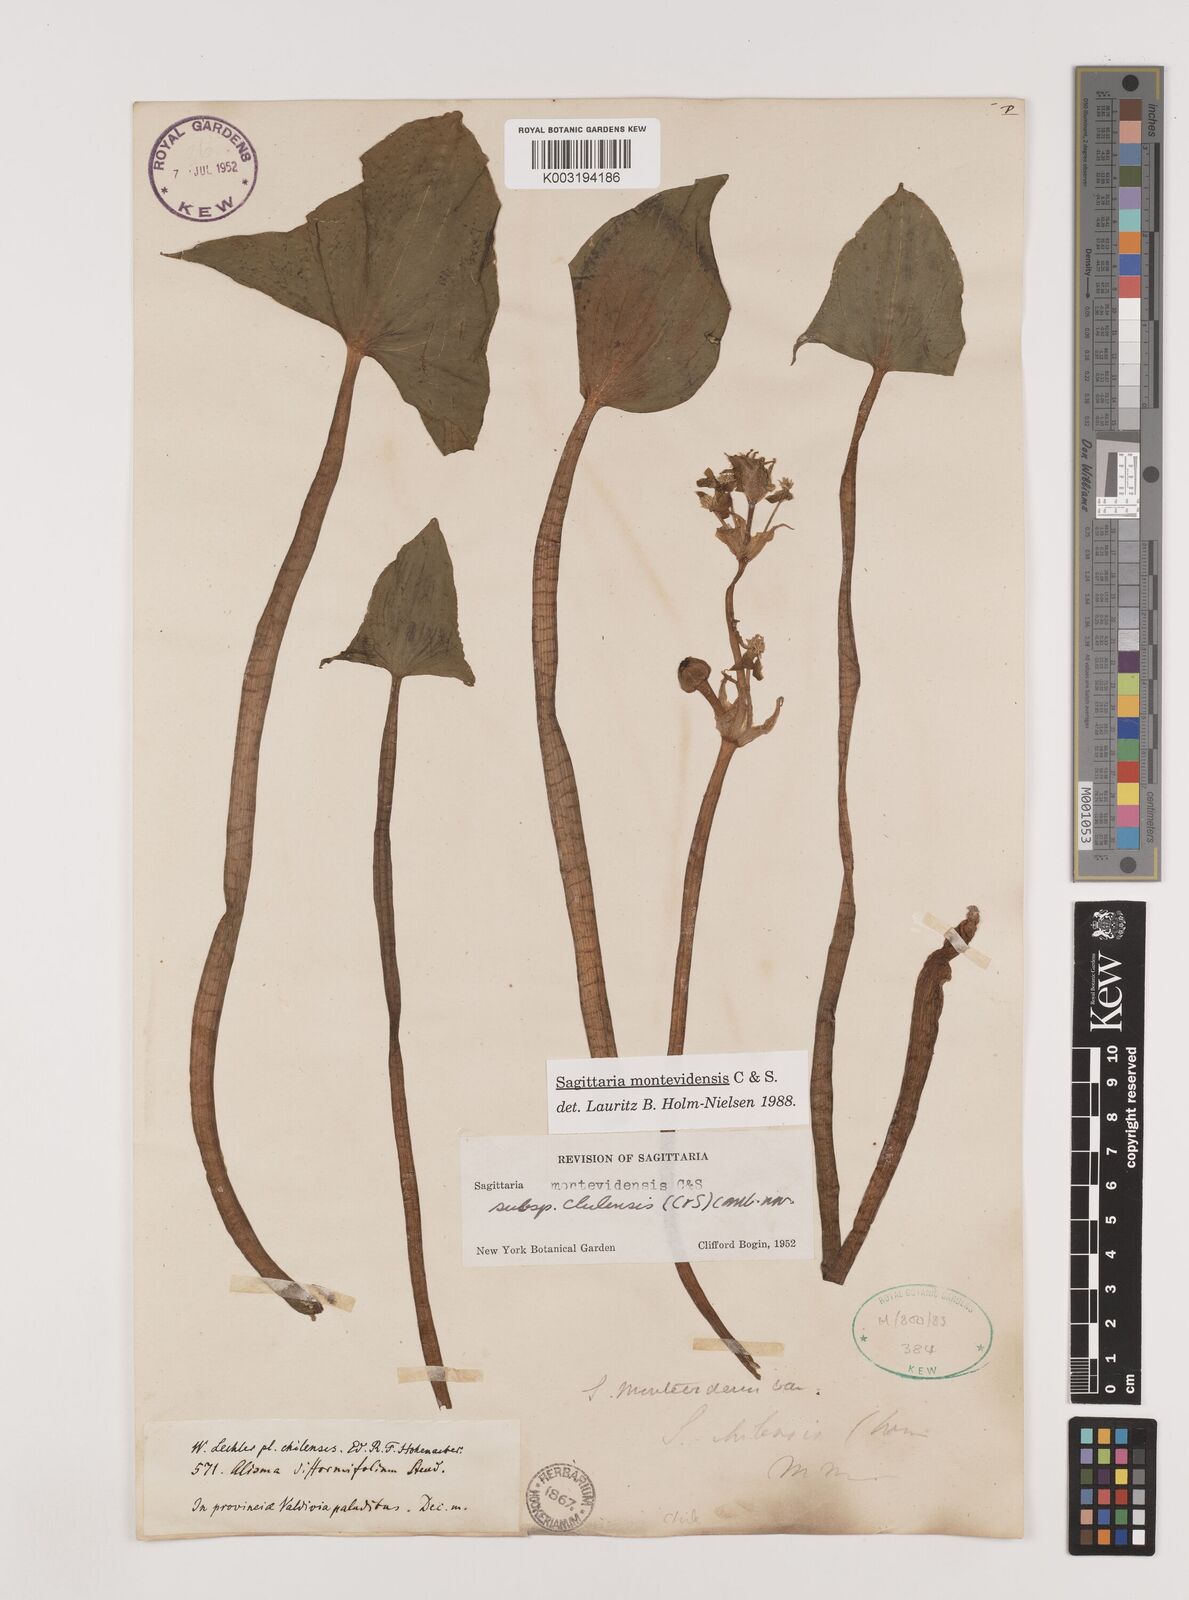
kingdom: Plantae
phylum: Tracheophyta
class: Liliopsida
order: Alismatales
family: Alismataceae
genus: Sagittaria
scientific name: Sagittaria montevidensis
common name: Giant arrowhead
